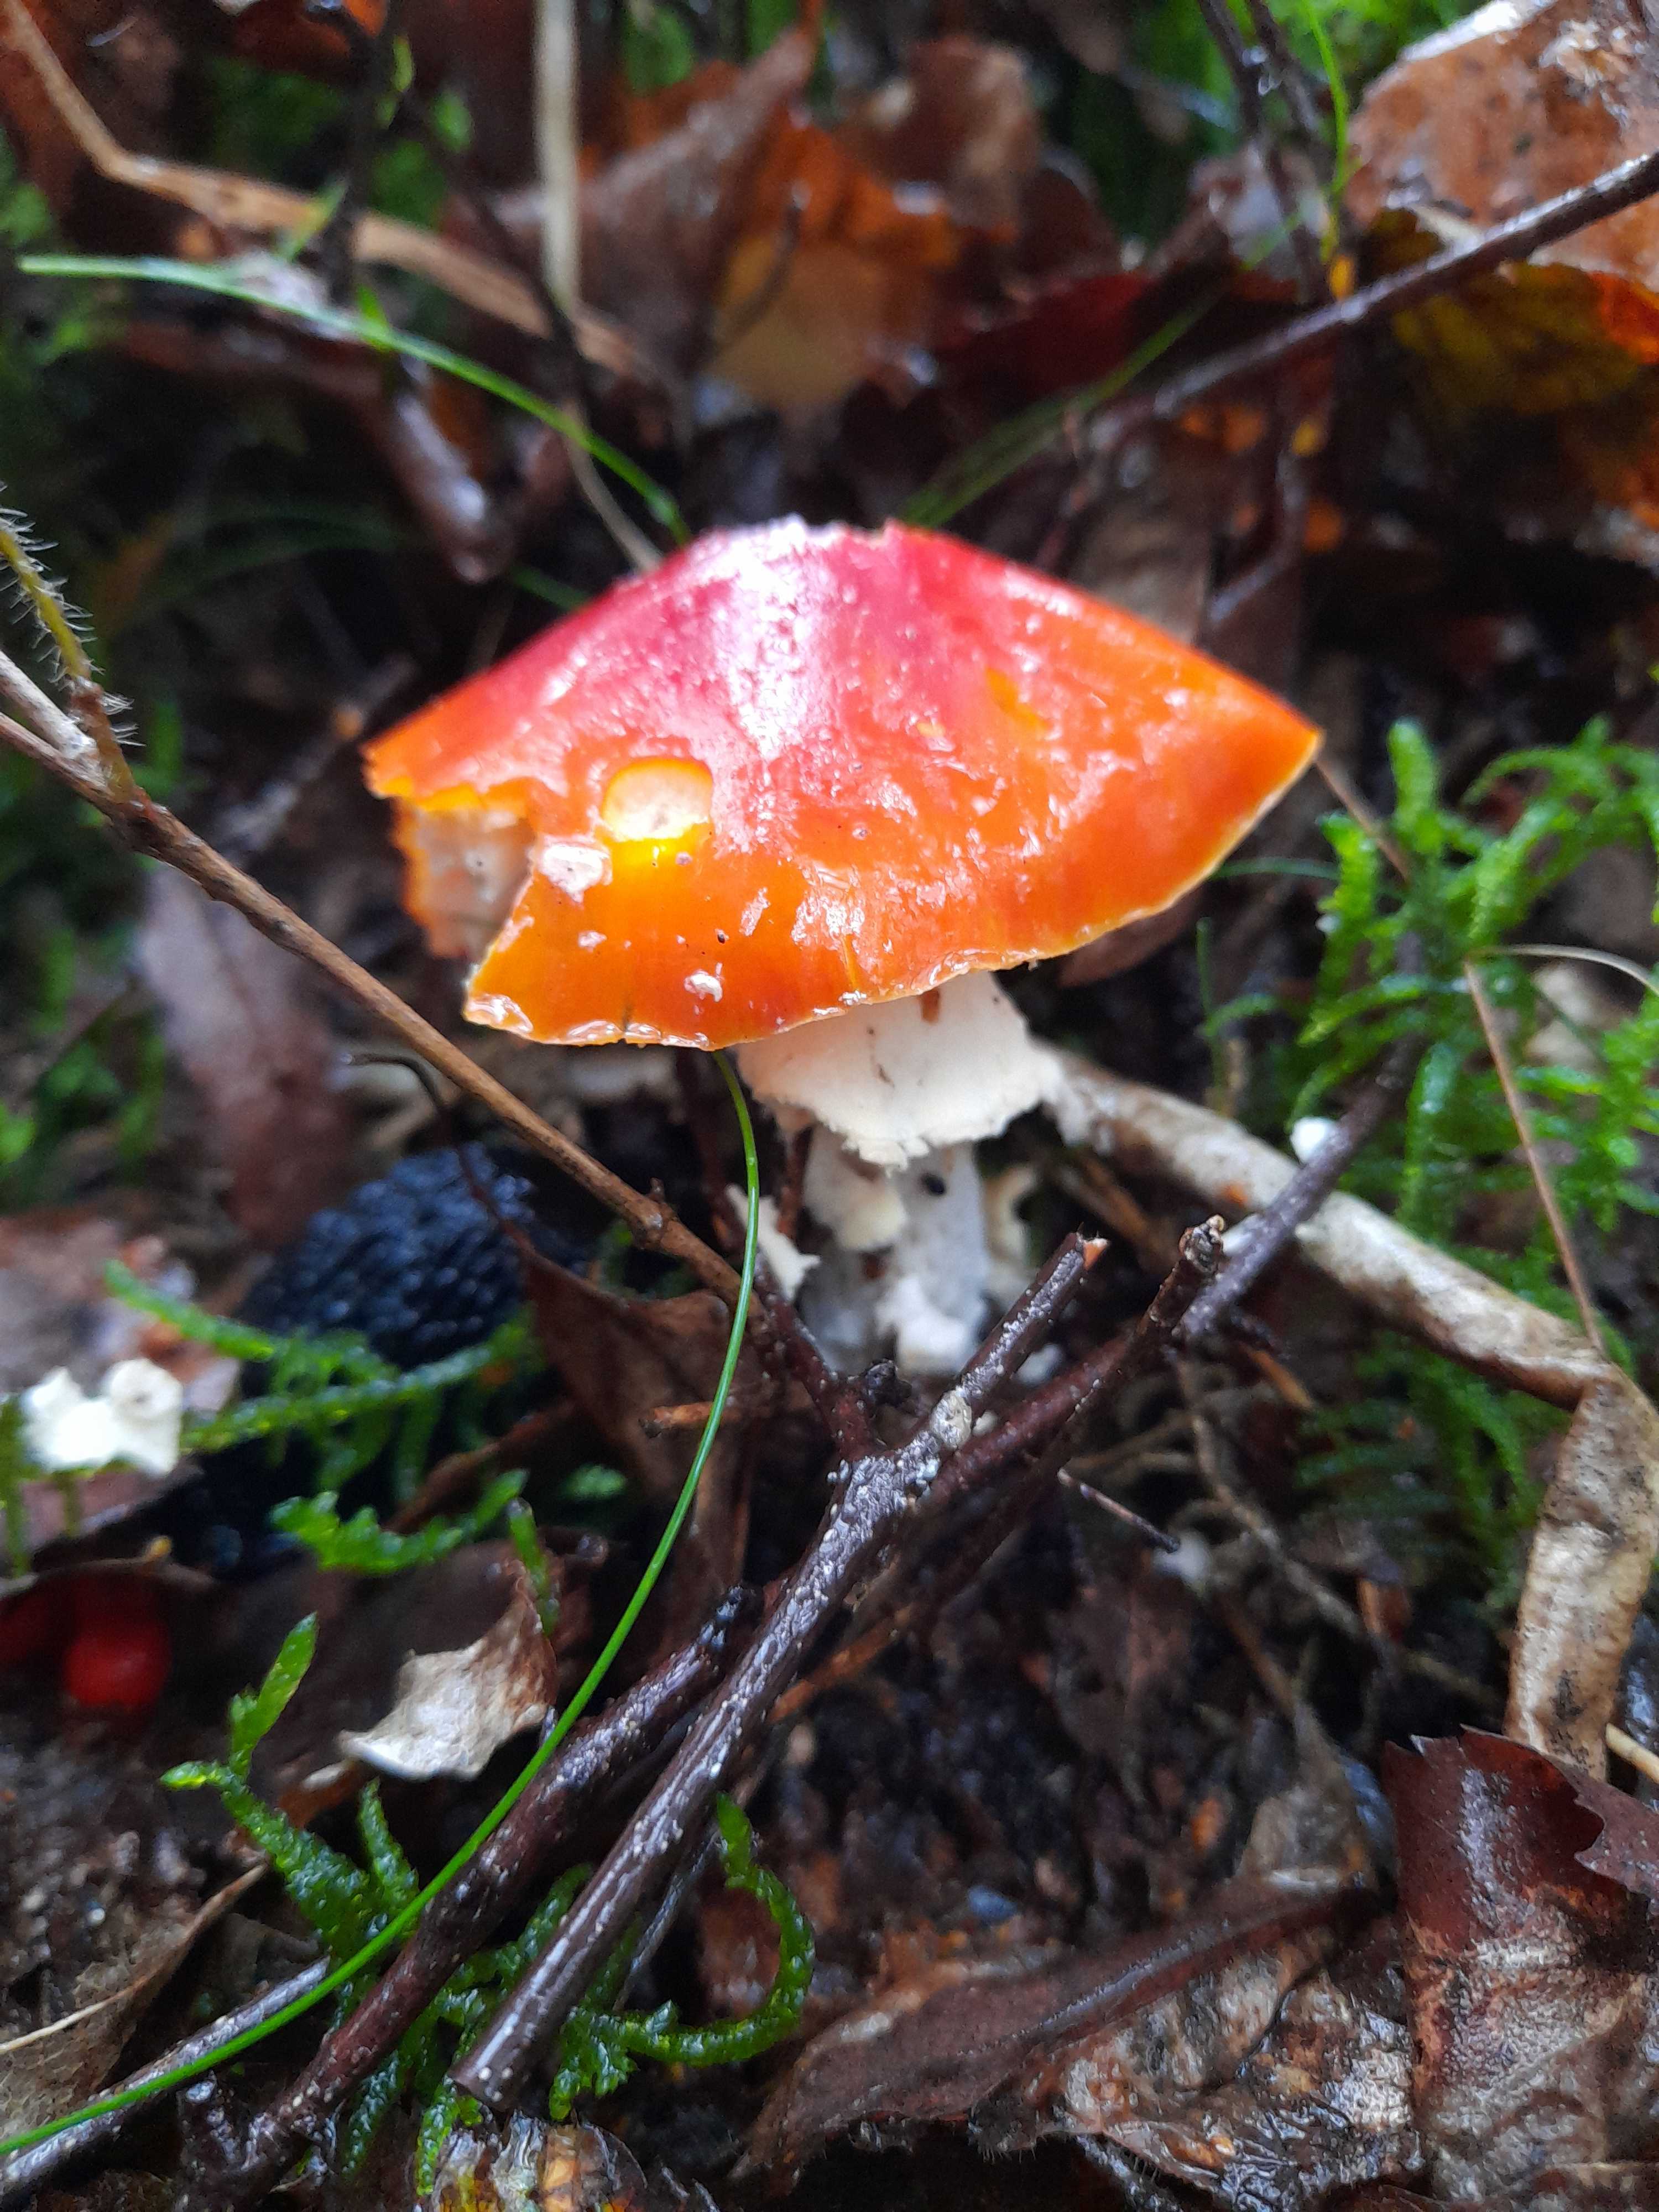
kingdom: Fungi
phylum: Basidiomycota
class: Agaricomycetes
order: Agaricales
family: Amanitaceae
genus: Amanita
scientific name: Amanita muscaria
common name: rød fluesvamp
